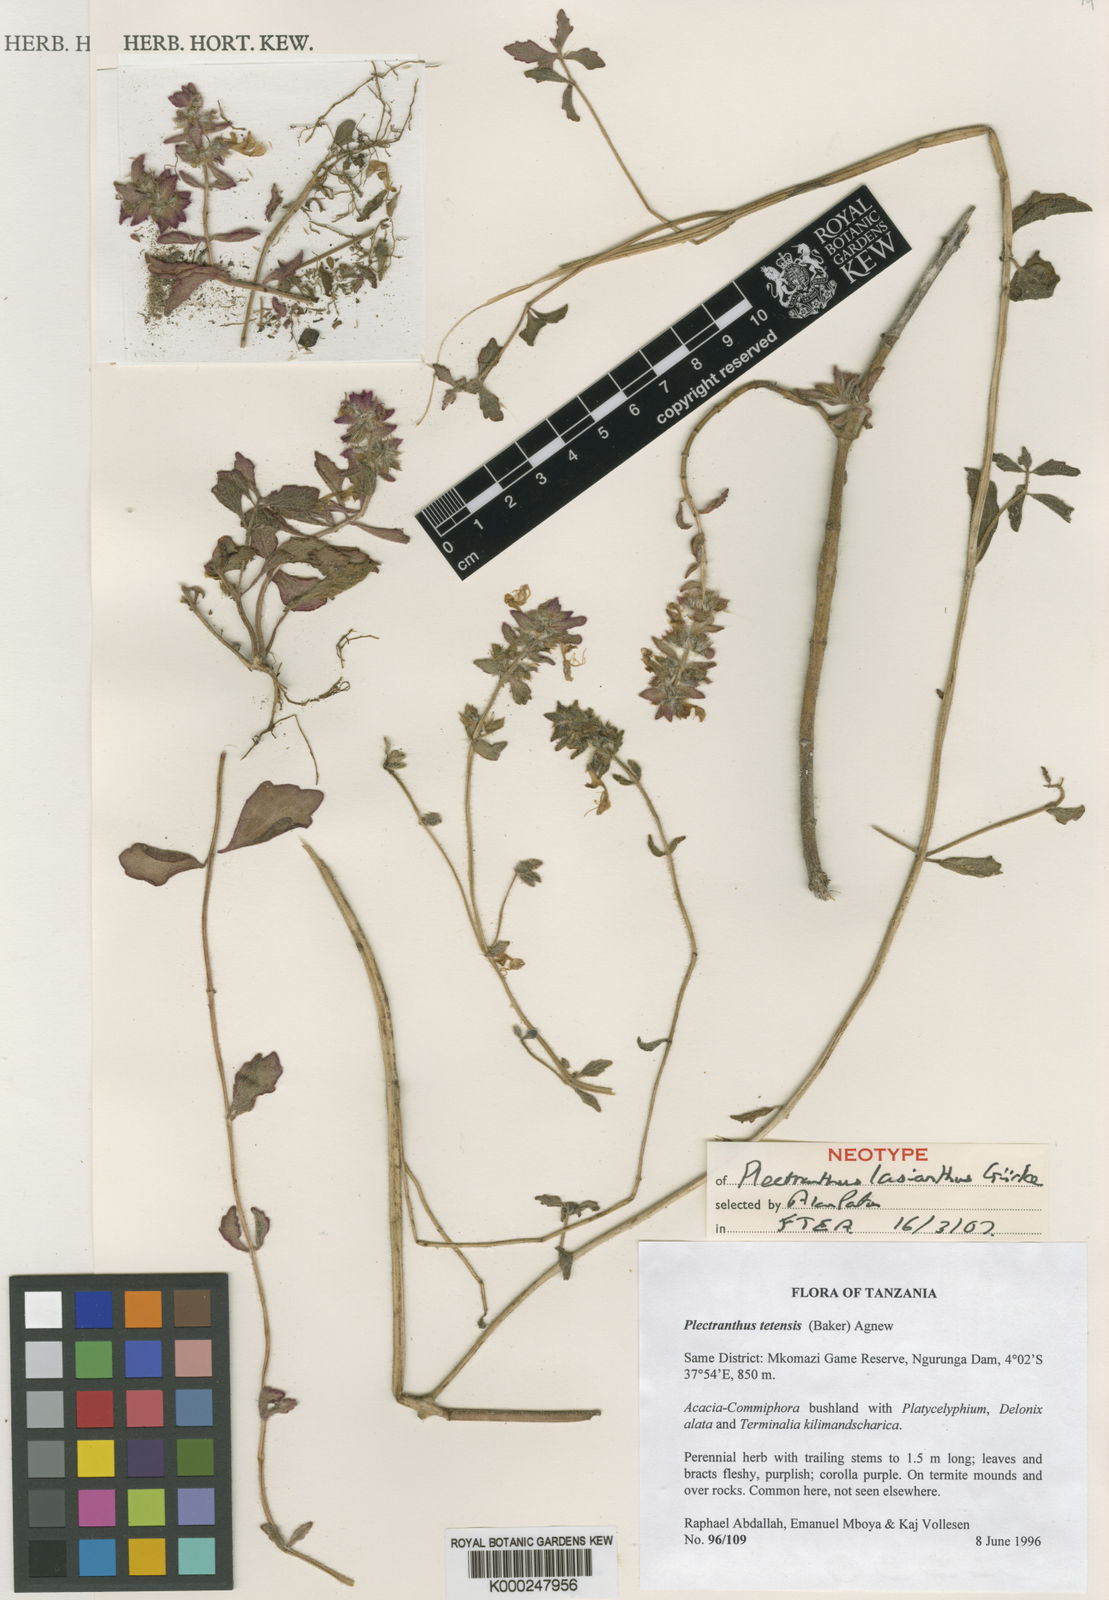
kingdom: Plantae
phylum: Tracheophyta
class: Magnoliopsida
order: Lamiales
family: Lamiaceae
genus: Coleus
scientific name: Coleus lasianthus
